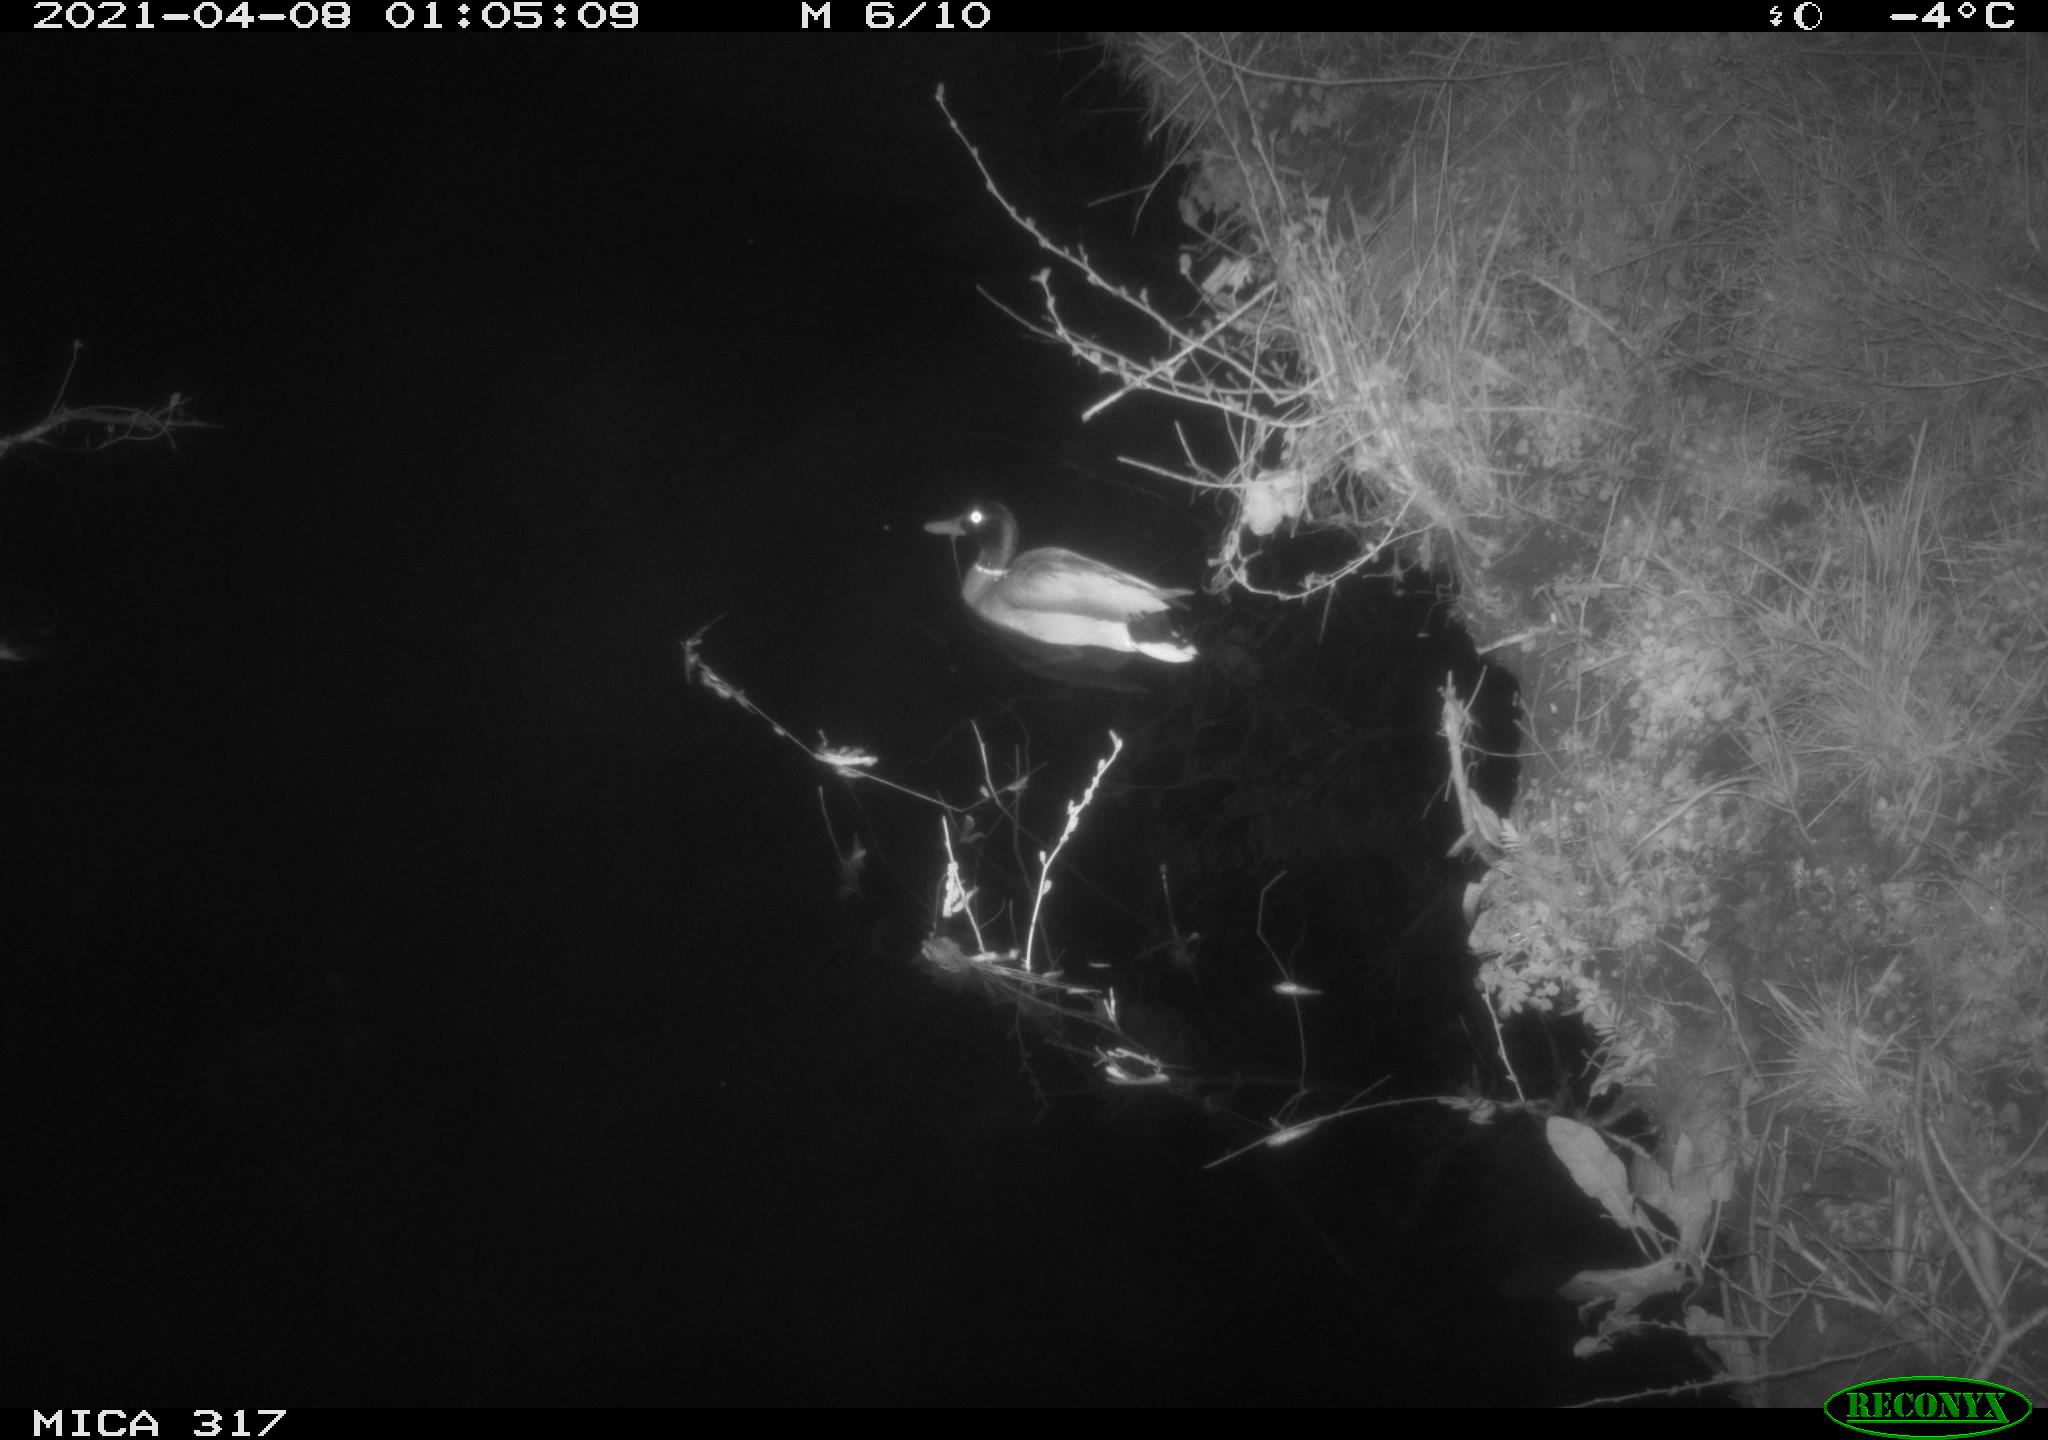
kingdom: Animalia
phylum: Chordata
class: Aves
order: Anseriformes
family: Anatidae
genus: Anas
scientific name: Anas platyrhynchos
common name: Mallard
